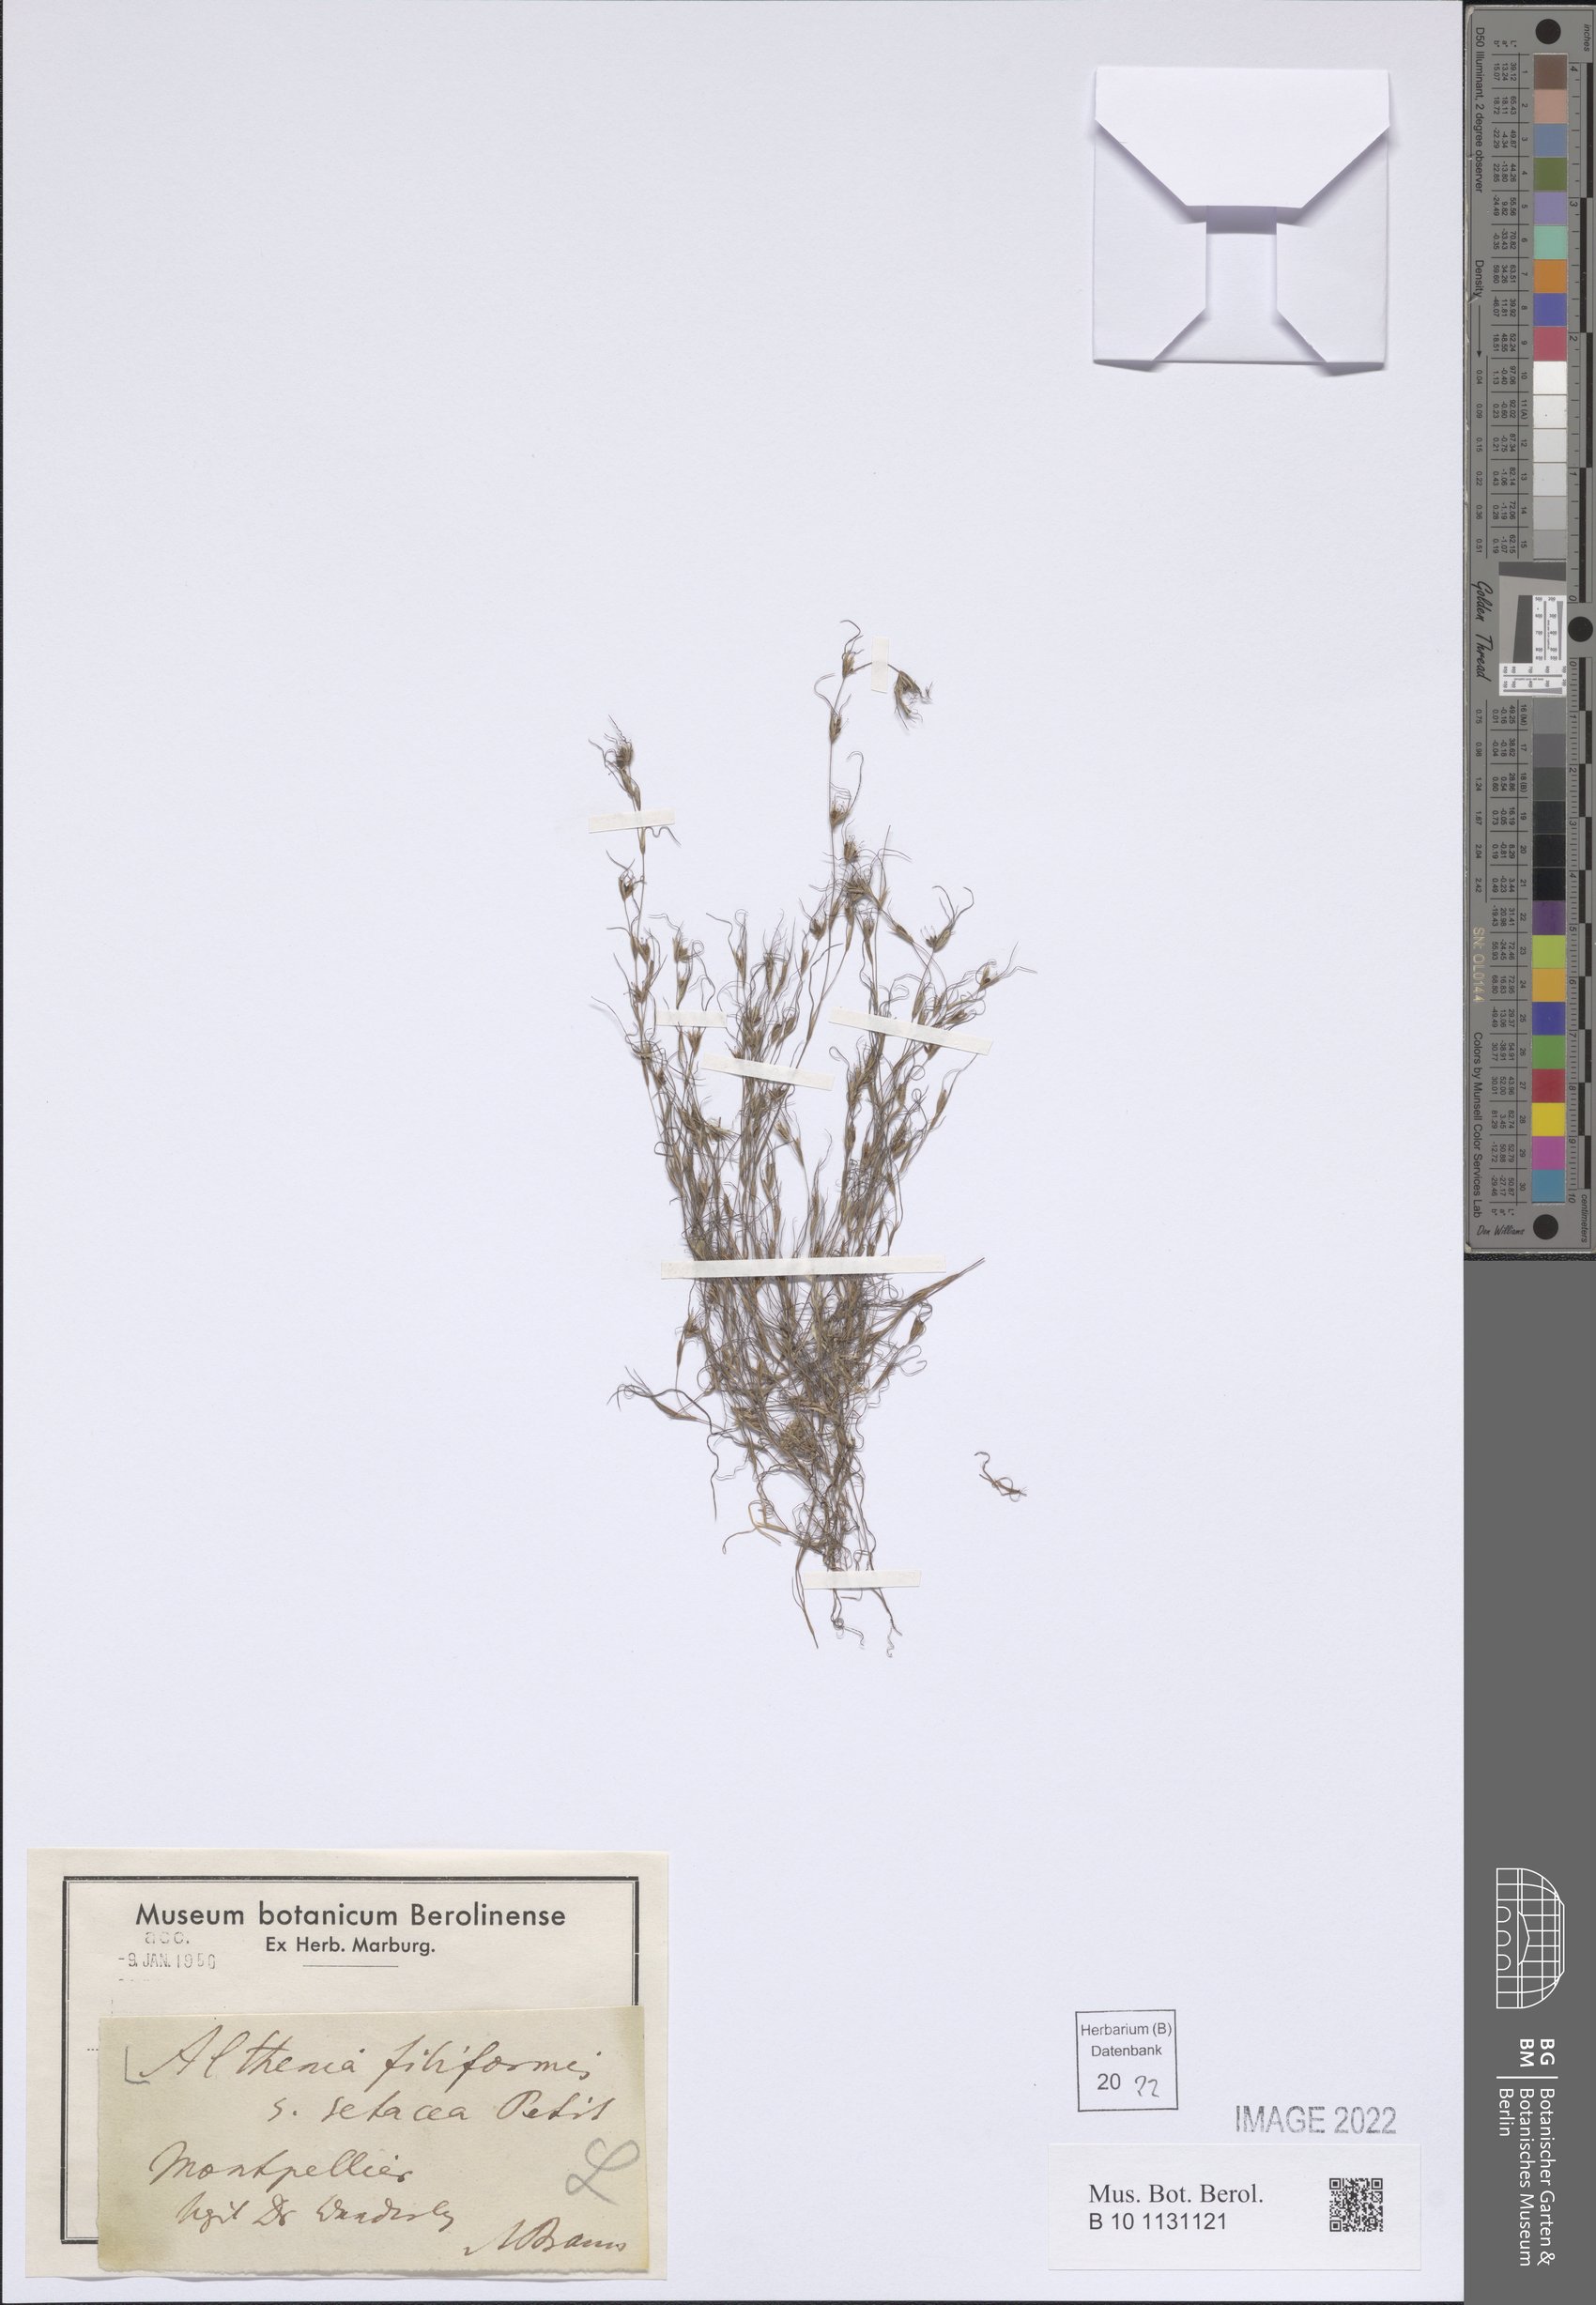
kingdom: Plantae
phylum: Tracheophyta
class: Liliopsida
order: Alismatales
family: Potamogetonaceae
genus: Althenia
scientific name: Althenia filiformis
